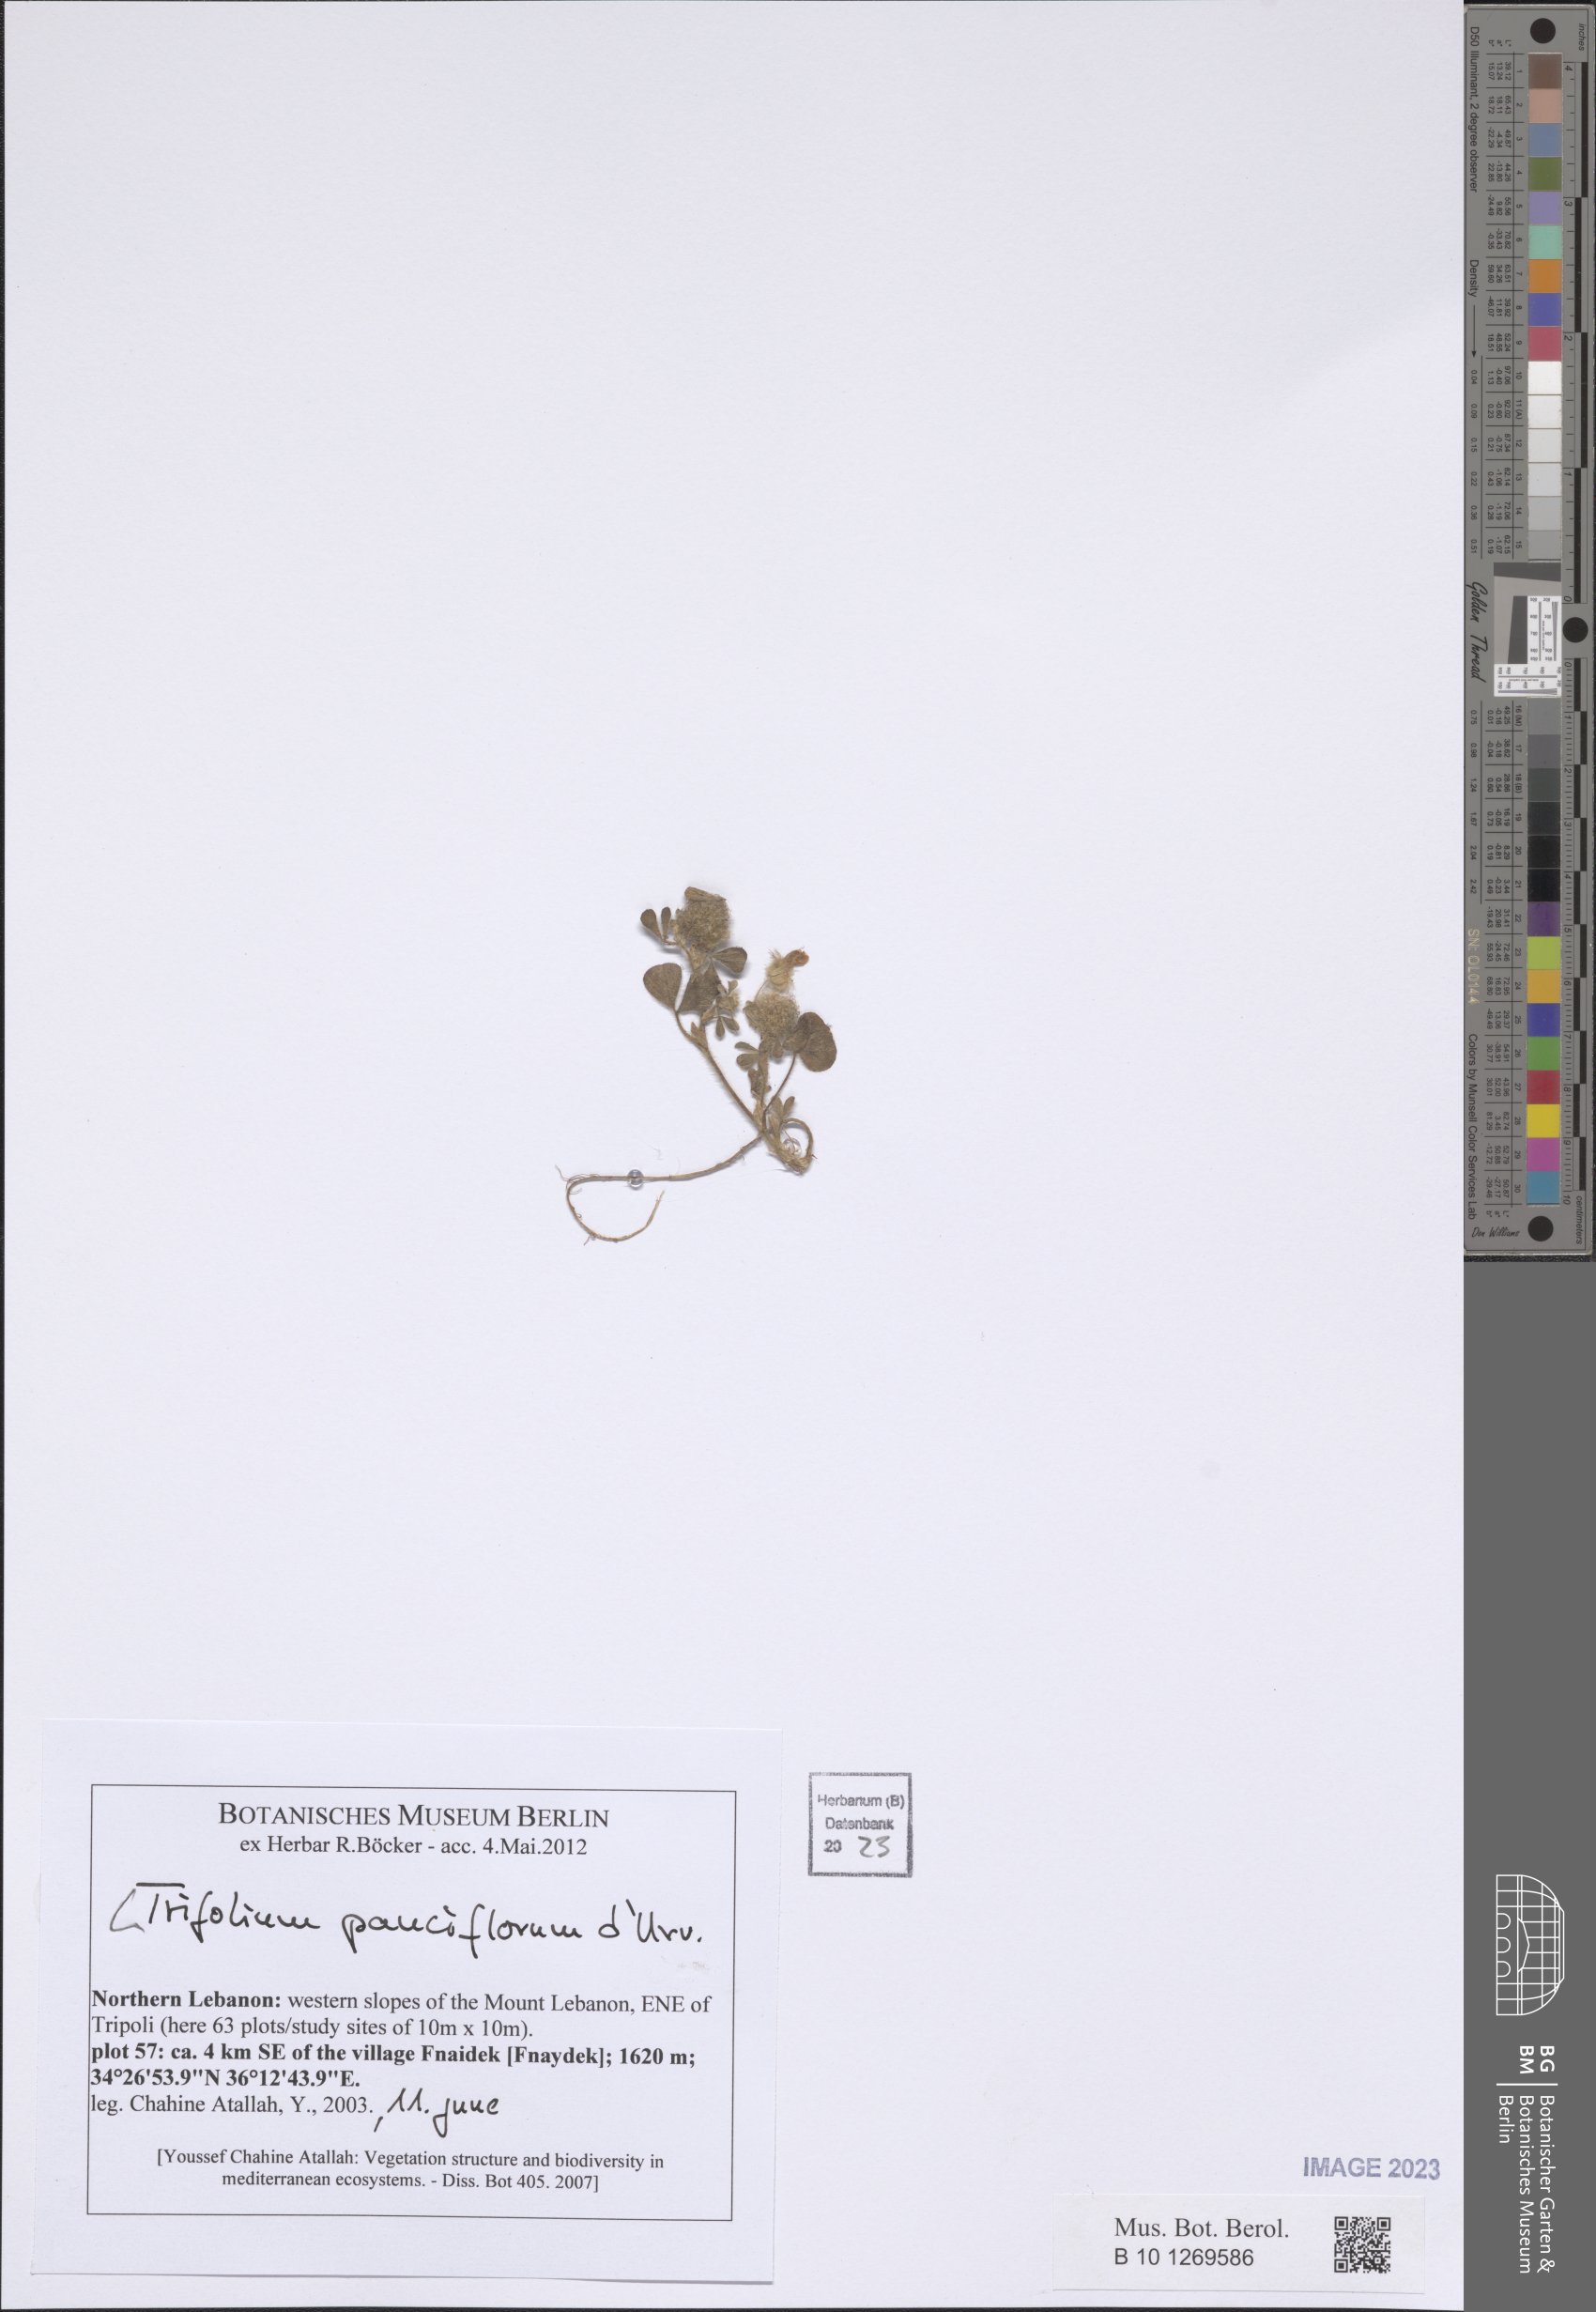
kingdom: Plantae
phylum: Tracheophyta
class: Magnoliopsida
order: Fabales
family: Fabaceae
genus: Trifolium
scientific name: Trifolium pauciflorum
